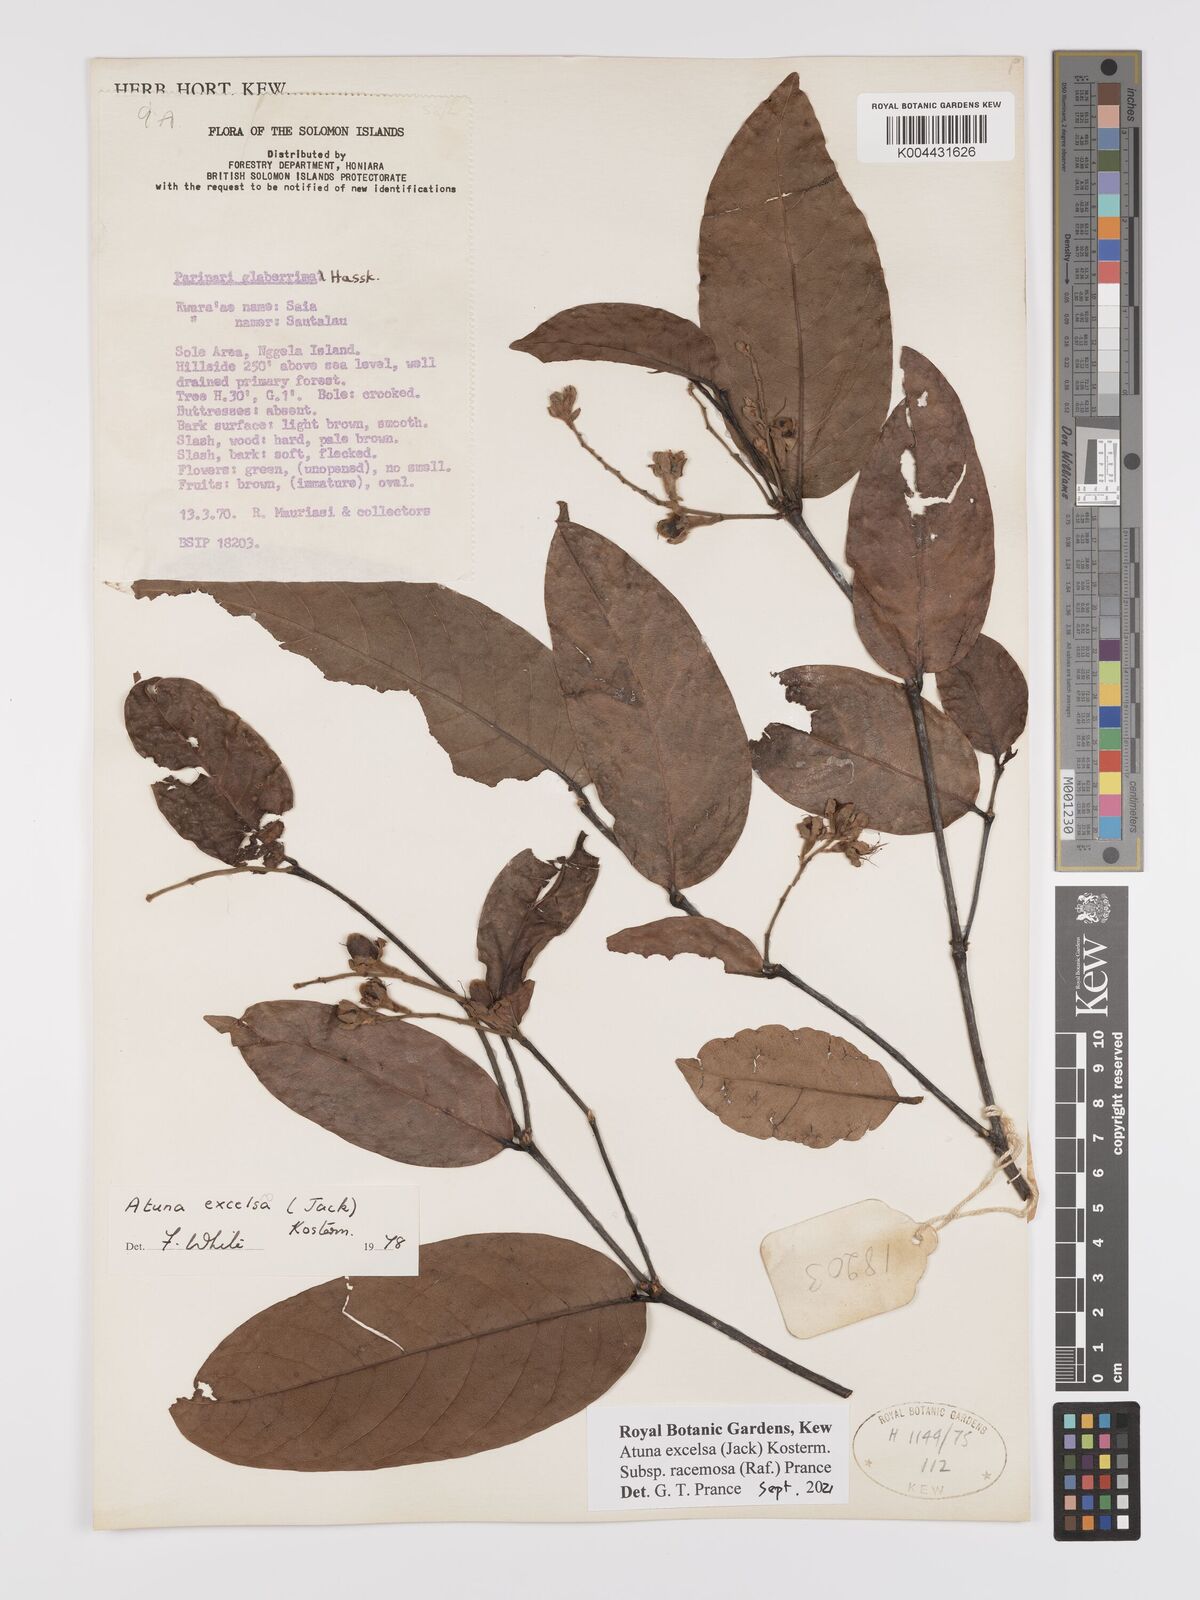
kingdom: Plantae
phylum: Tracheophyta
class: Magnoliopsida
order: Malpighiales
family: Chrysobalanaceae
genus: Atuna
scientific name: Atuna excelsa
